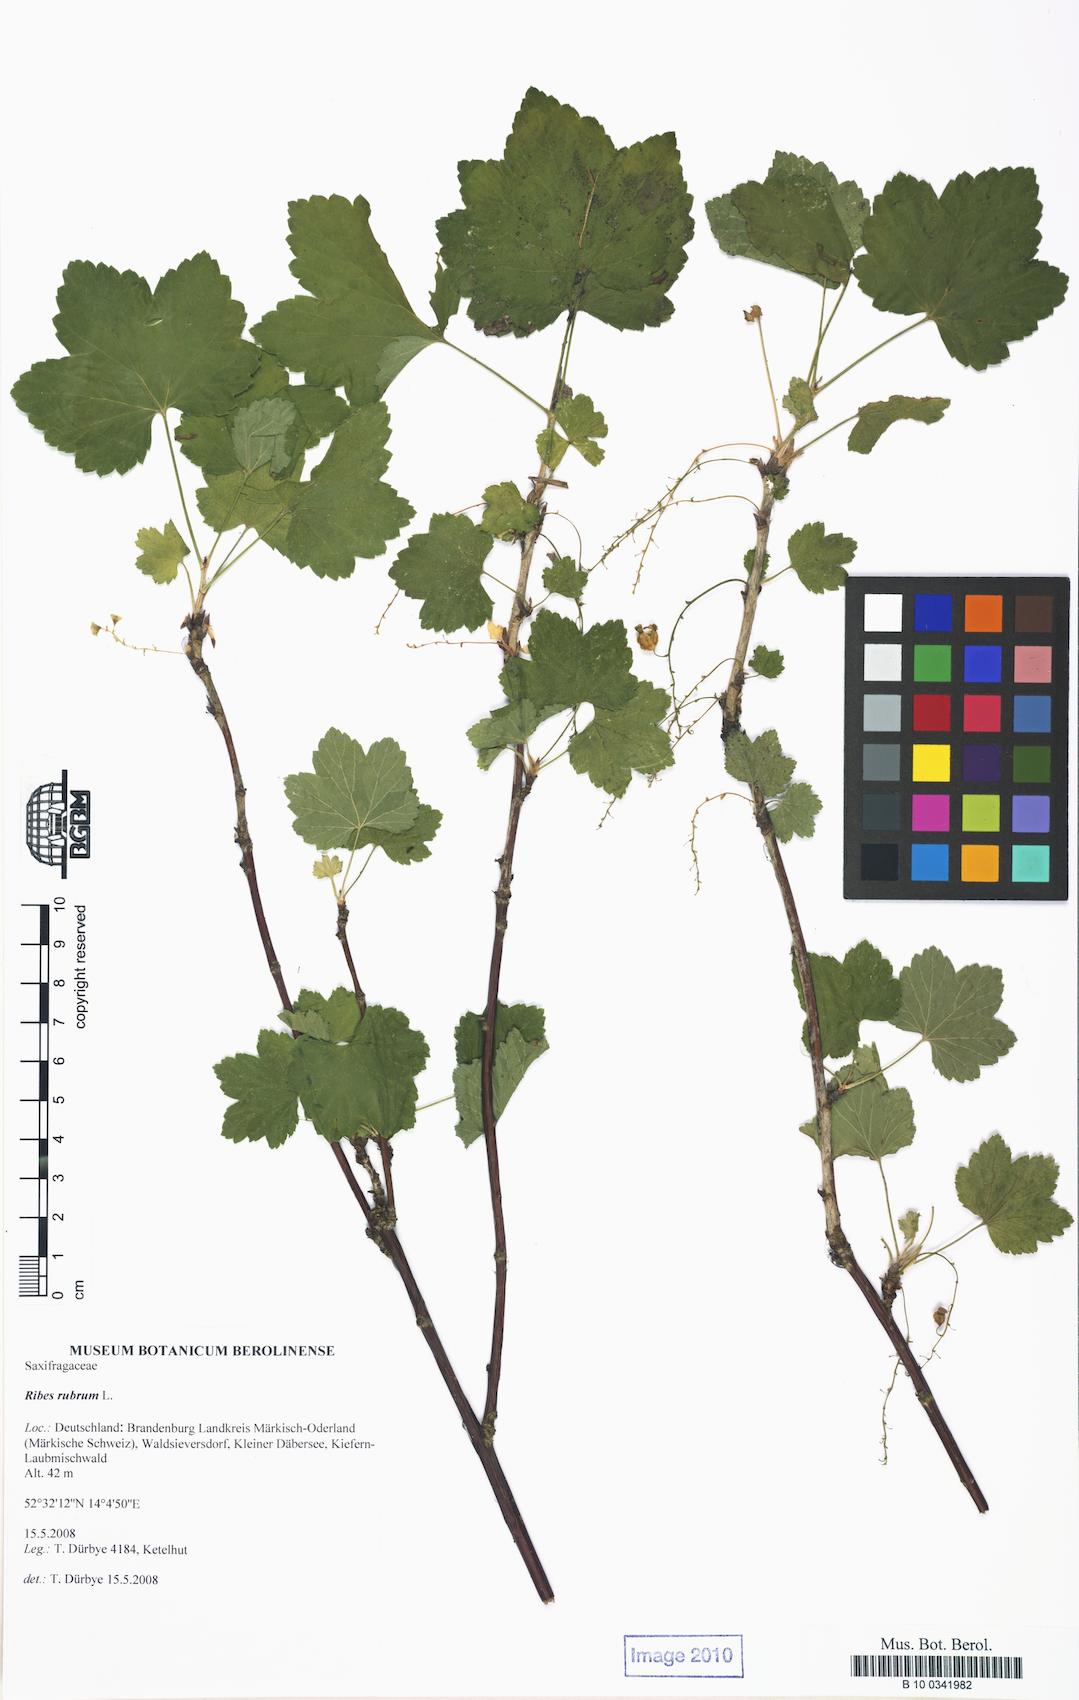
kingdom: Plantae
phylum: Tracheophyta
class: Magnoliopsida
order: Saxifragales
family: Grossulariaceae
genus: Ribes
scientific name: Ribes rubrum
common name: Red currant
